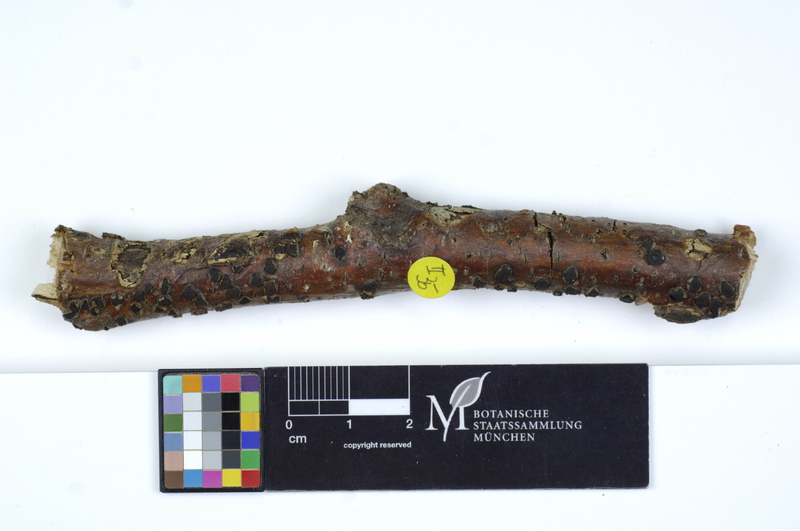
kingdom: Plantae
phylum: Tracheophyta
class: Magnoliopsida
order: Fagales
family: Fagaceae
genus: Fagus
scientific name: Fagus sylvatica
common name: Beech
